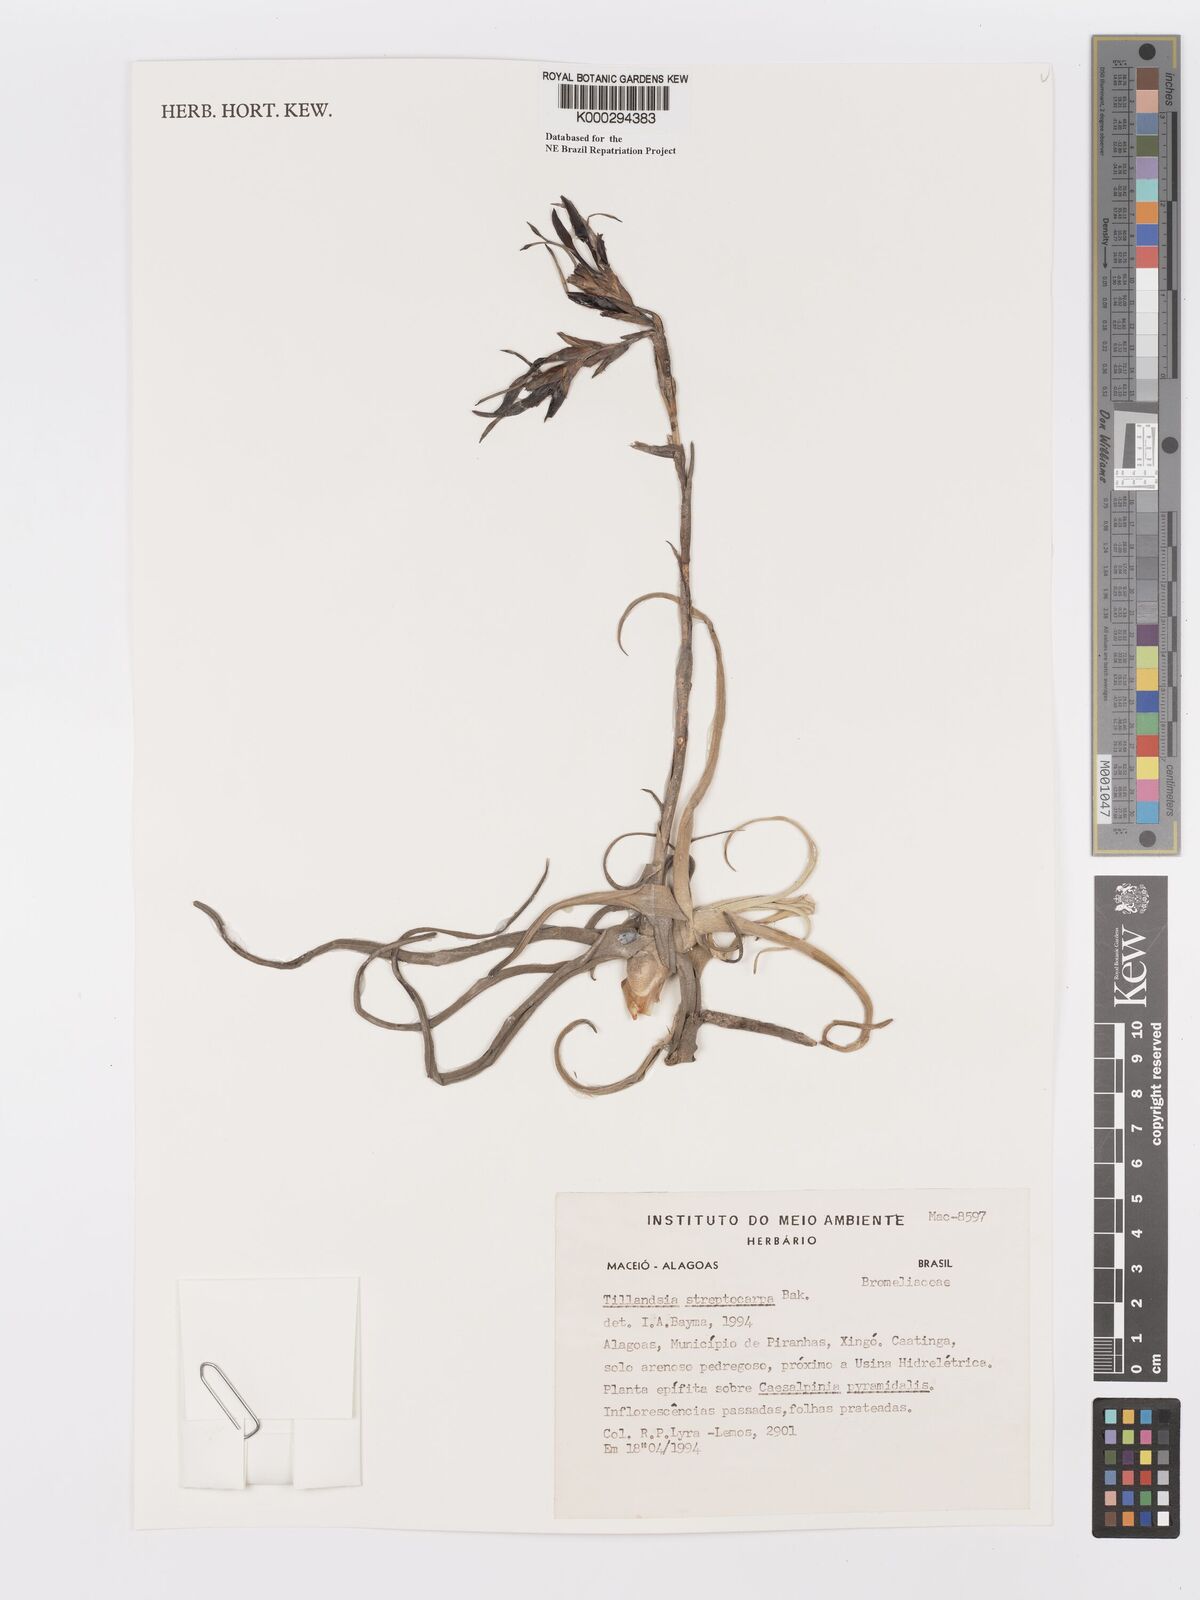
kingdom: Plantae
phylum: Tracheophyta
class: Liliopsida
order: Poales
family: Bromeliaceae
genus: Tillandsia
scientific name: Tillandsia streptocarpa
